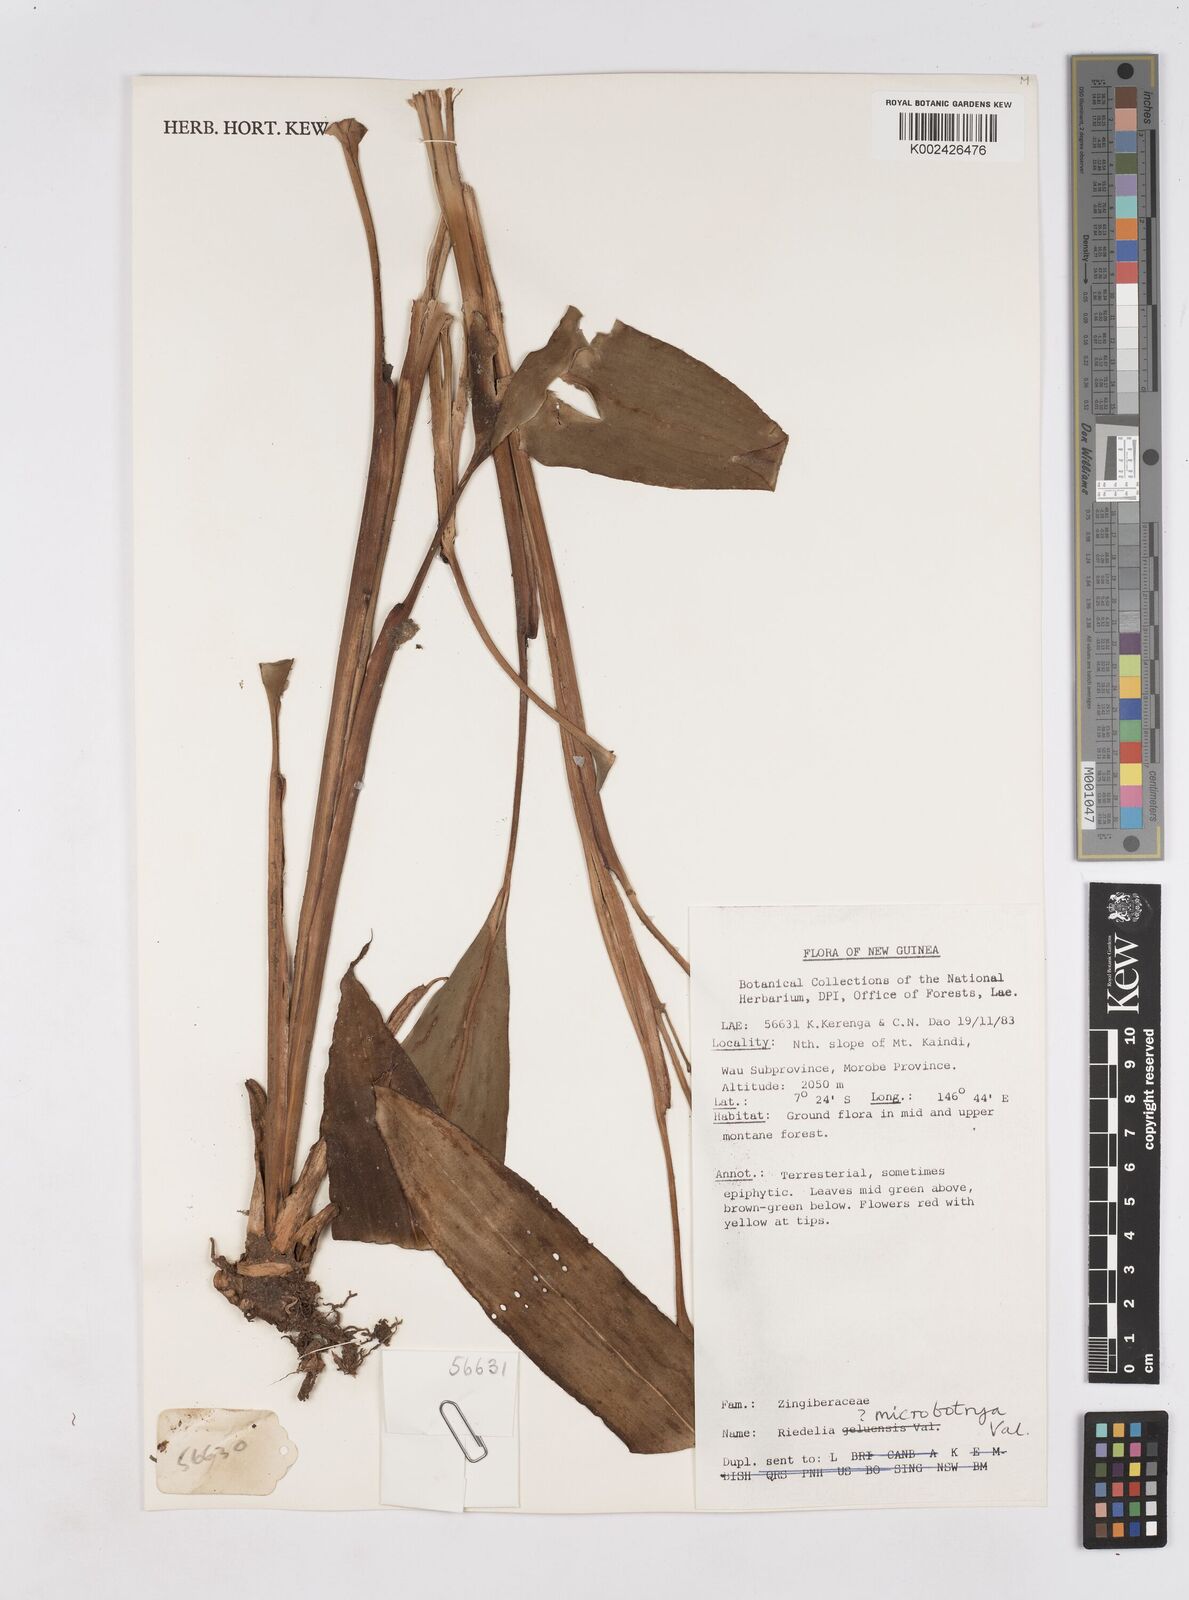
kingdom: Plantae
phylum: Tracheophyta
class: Liliopsida
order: Zingiberales
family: Zingiberaceae
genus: Riedelia
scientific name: Riedelia microbotrya
